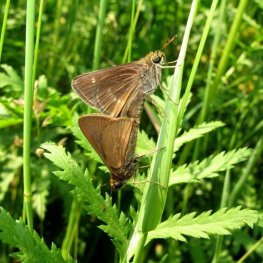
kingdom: Animalia
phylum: Arthropoda
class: Insecta
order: Lepidoptera
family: Hesperiidae
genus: Euphyes
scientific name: Euphyes vestris
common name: Dun Skipper
